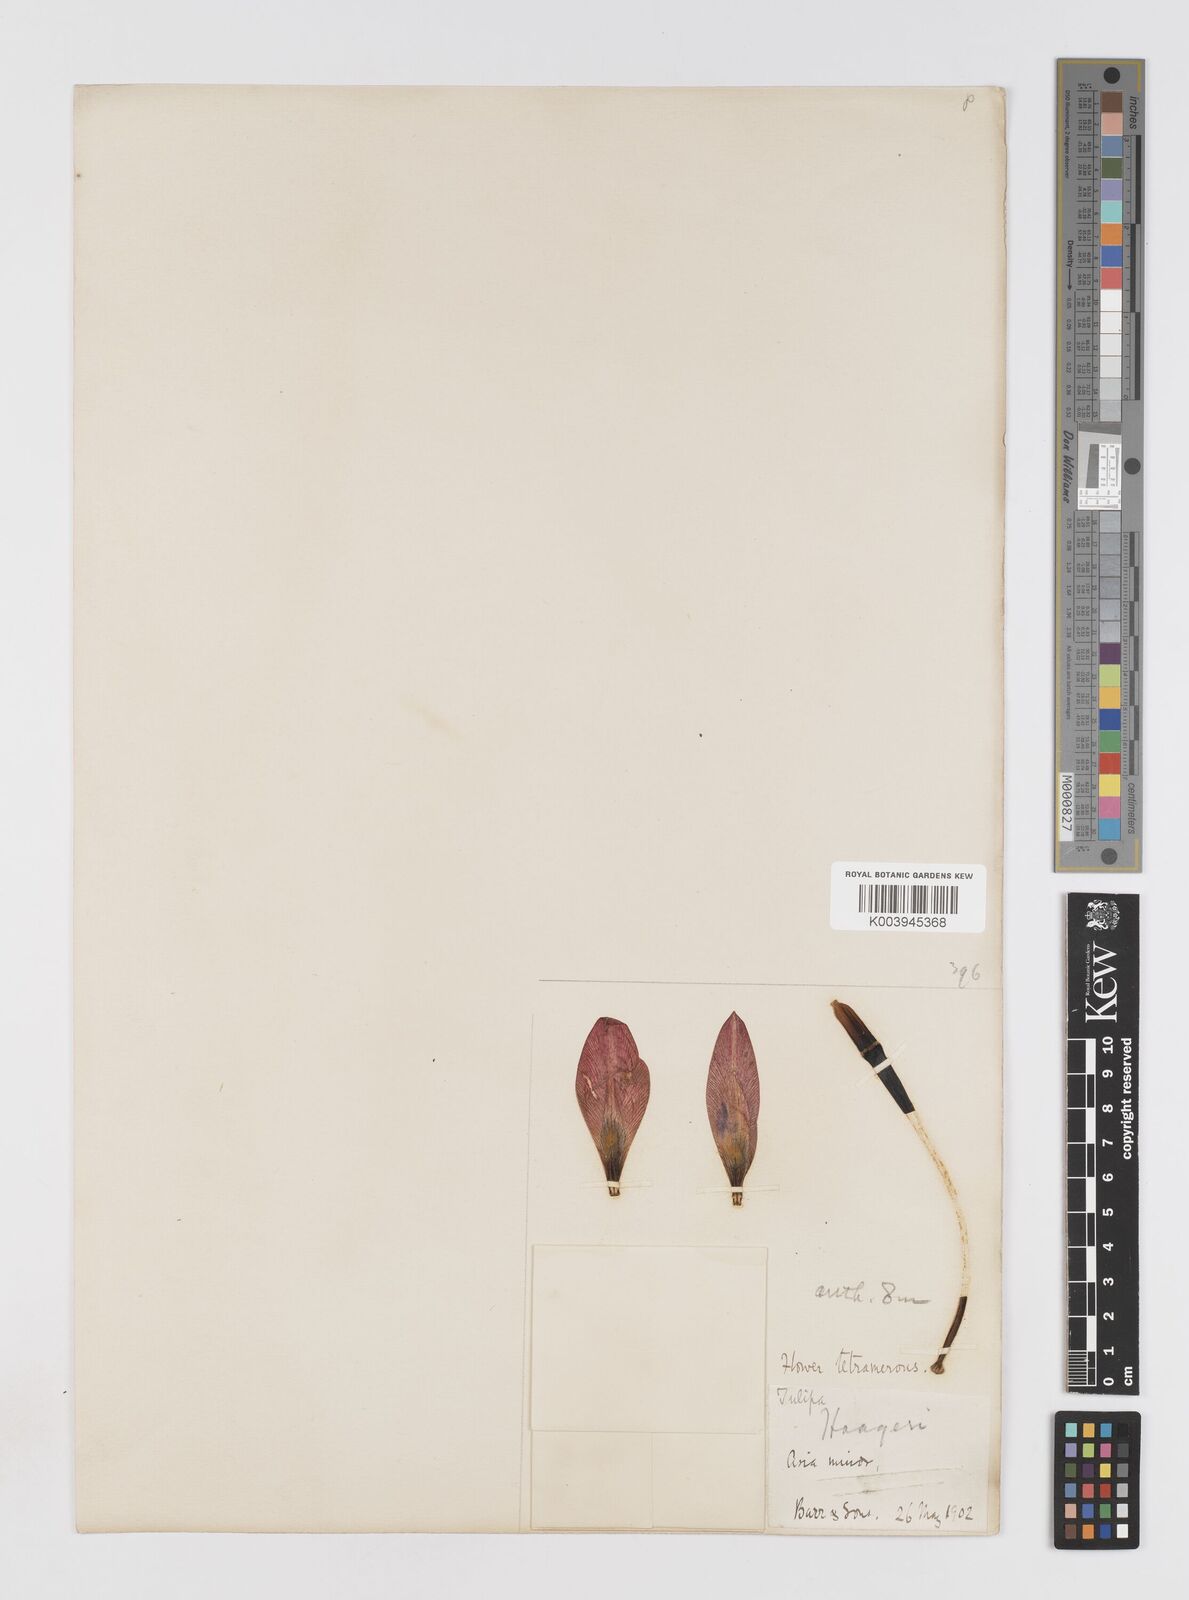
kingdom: Plantae
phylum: Tracheophyta
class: Liliopsida
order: Liliales
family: Liliaceae
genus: Tulipa
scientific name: Tulipa
